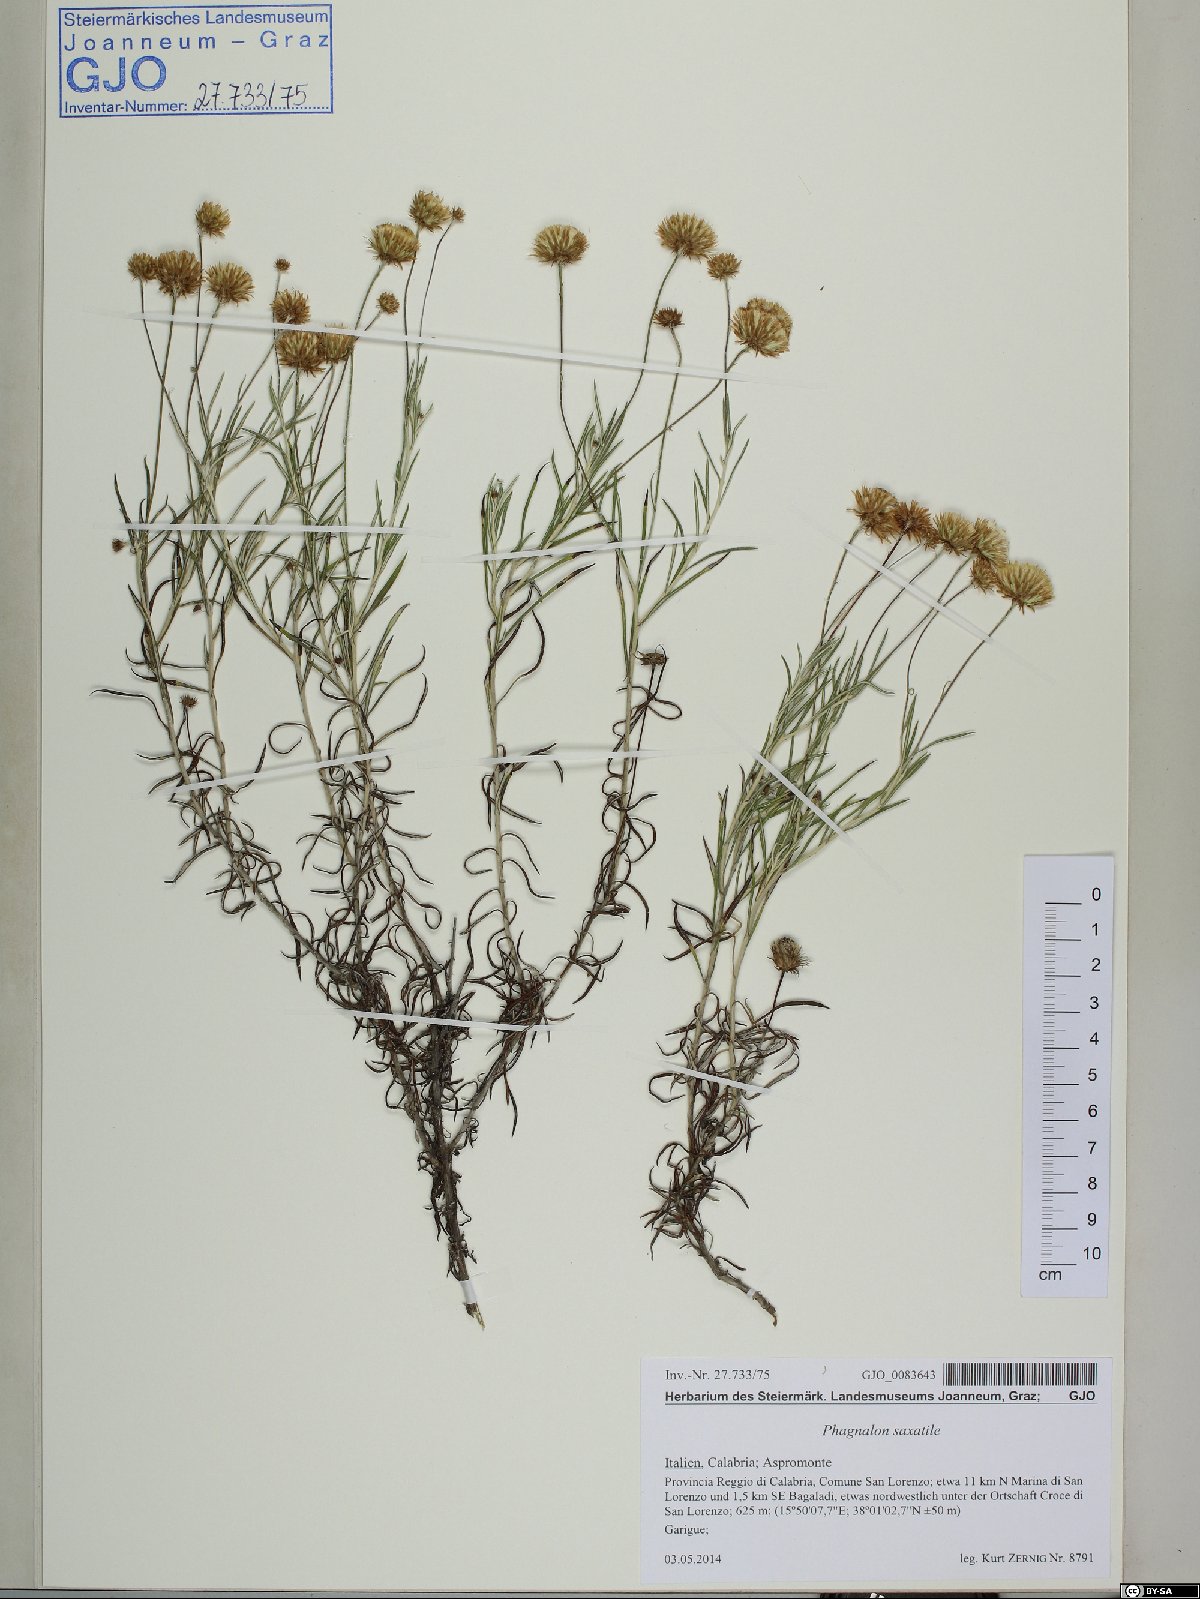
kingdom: Plantae
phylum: Tracheophyta
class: Magnoliopsida
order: Asterales
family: Asteraceae
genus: Phagnalon
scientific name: Phagnalon saxatile
